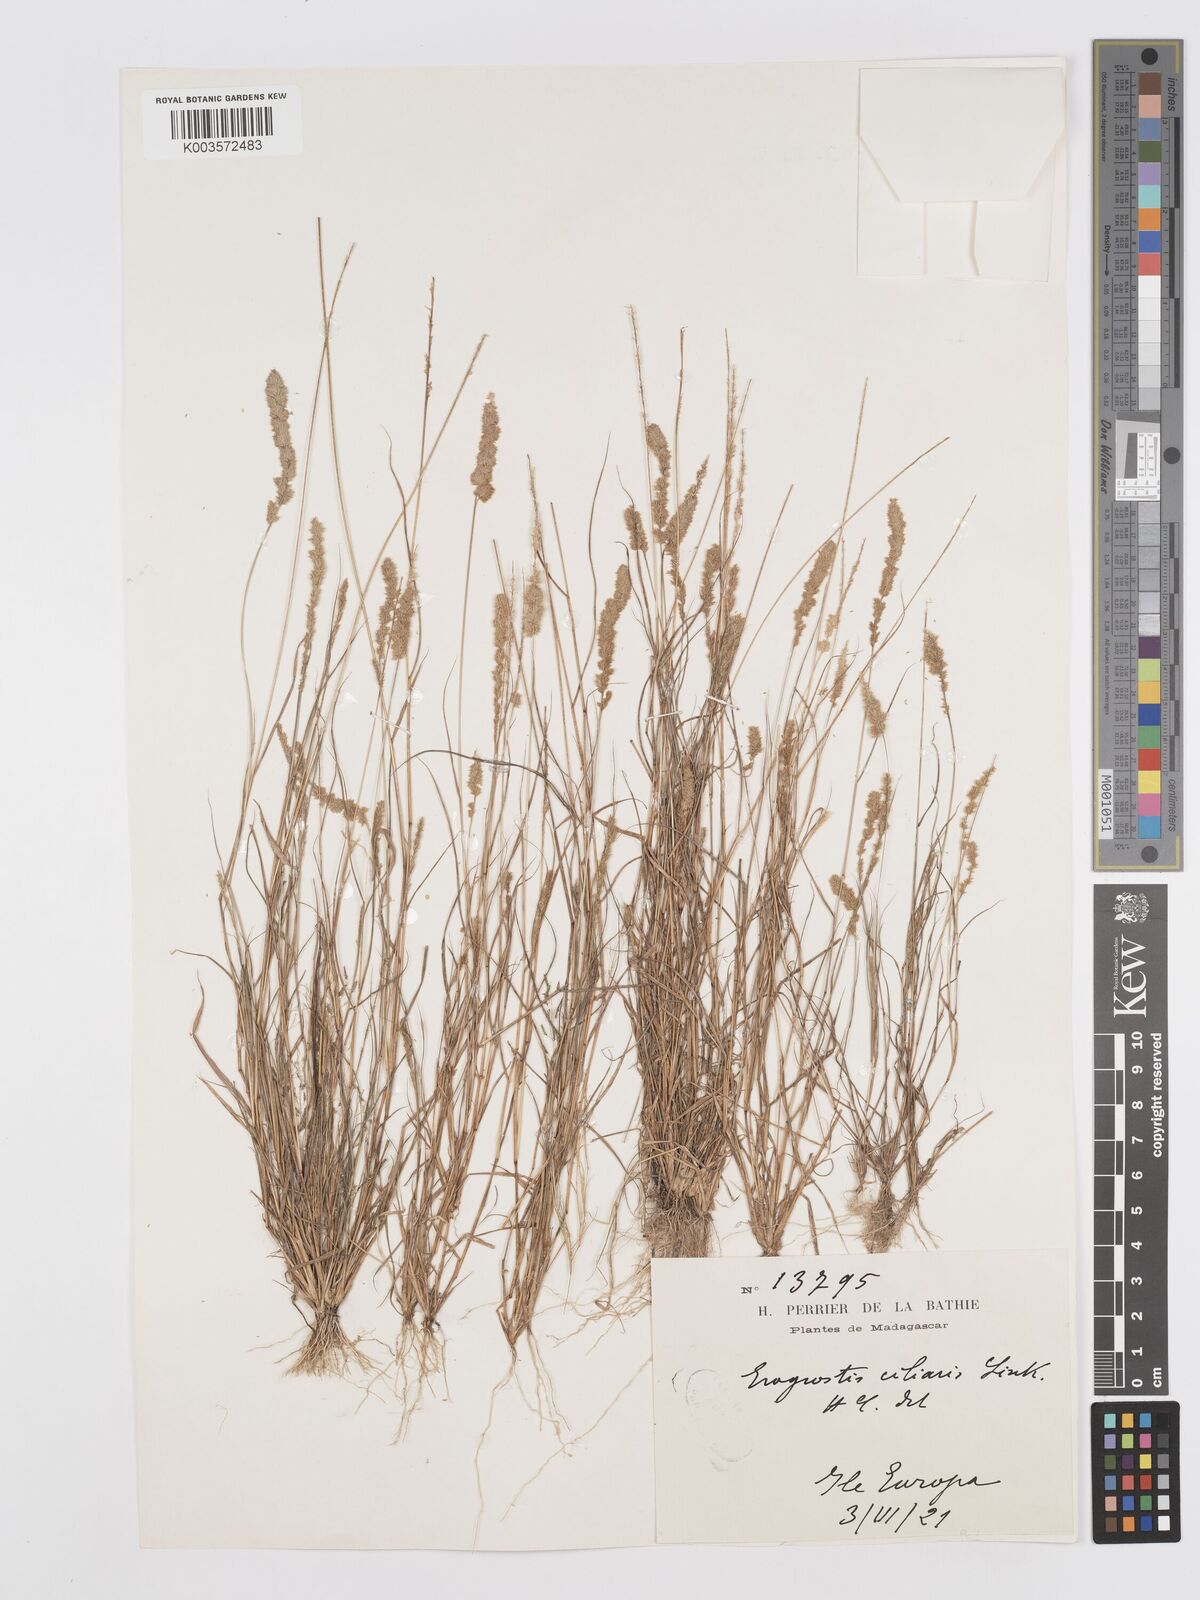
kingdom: Plantae
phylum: Tracheophyta
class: Liliopsida
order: Poales
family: Poaceae
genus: Eragrostis
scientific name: Eragrostis ciliaris
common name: Gophertail lovegrass
